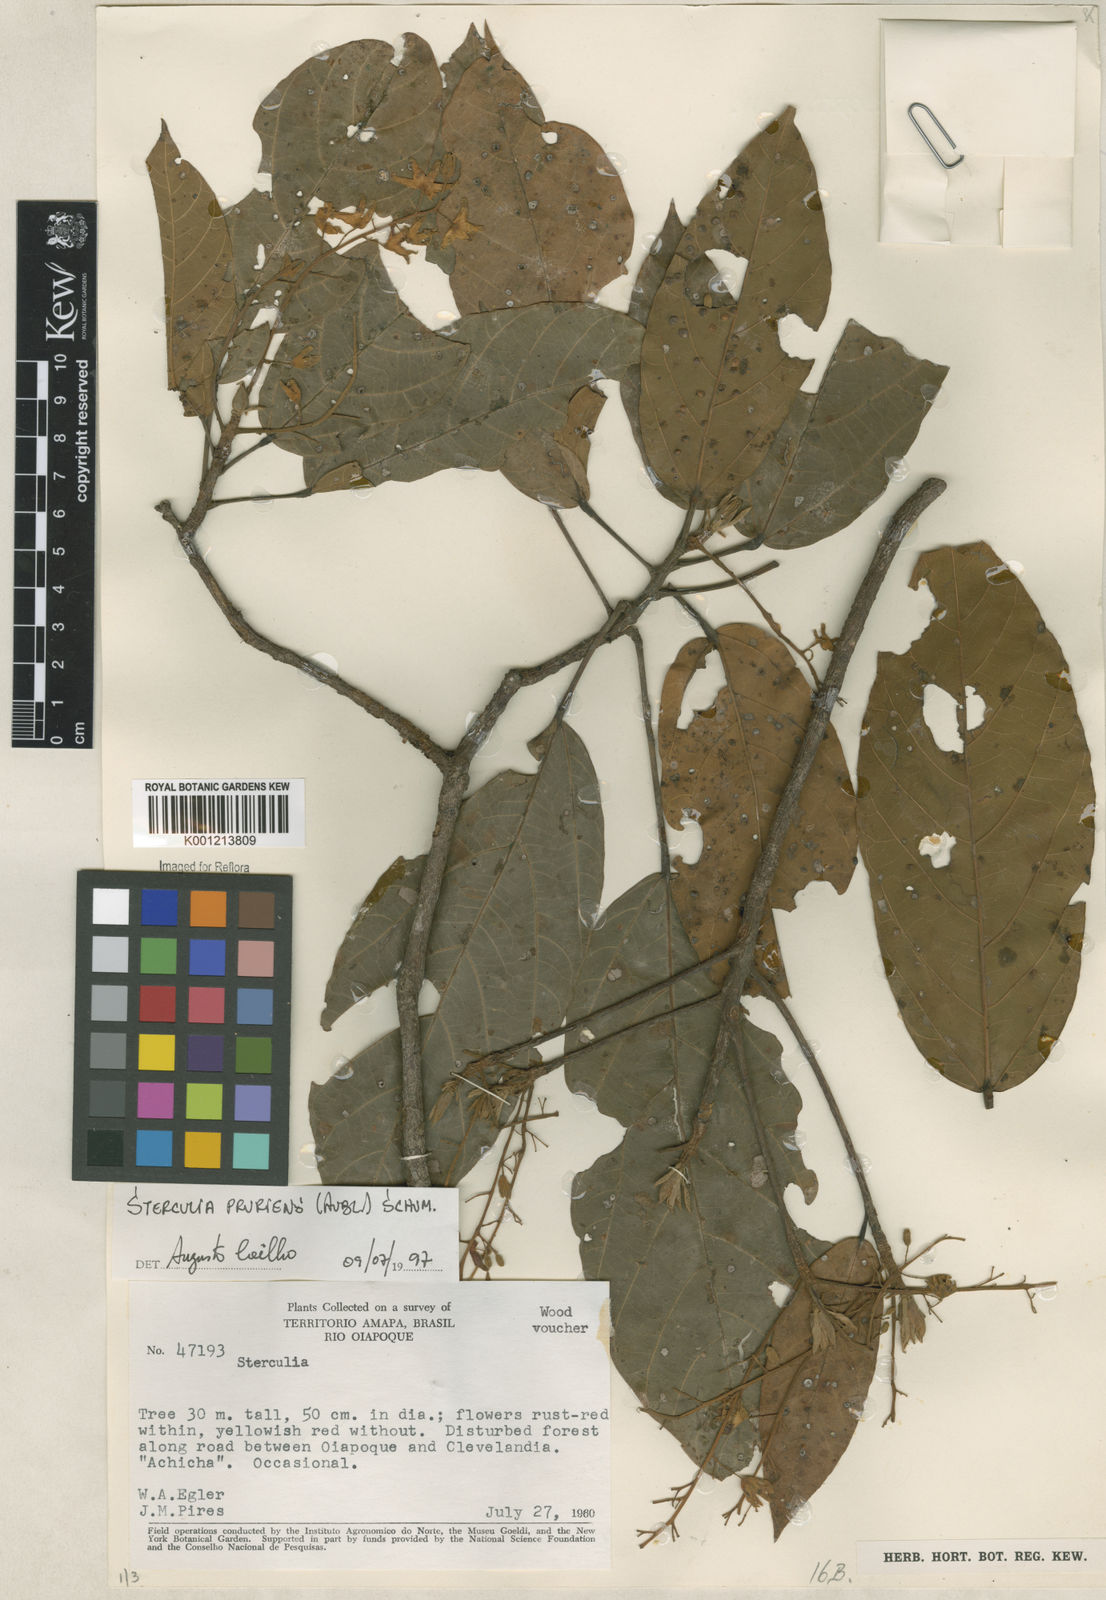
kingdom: Plantae
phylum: Tracheophyta
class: Magnoliopsida
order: Malvales
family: Malvaceae
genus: Sterculia
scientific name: Sterculia pruriens
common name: Grand mahot
